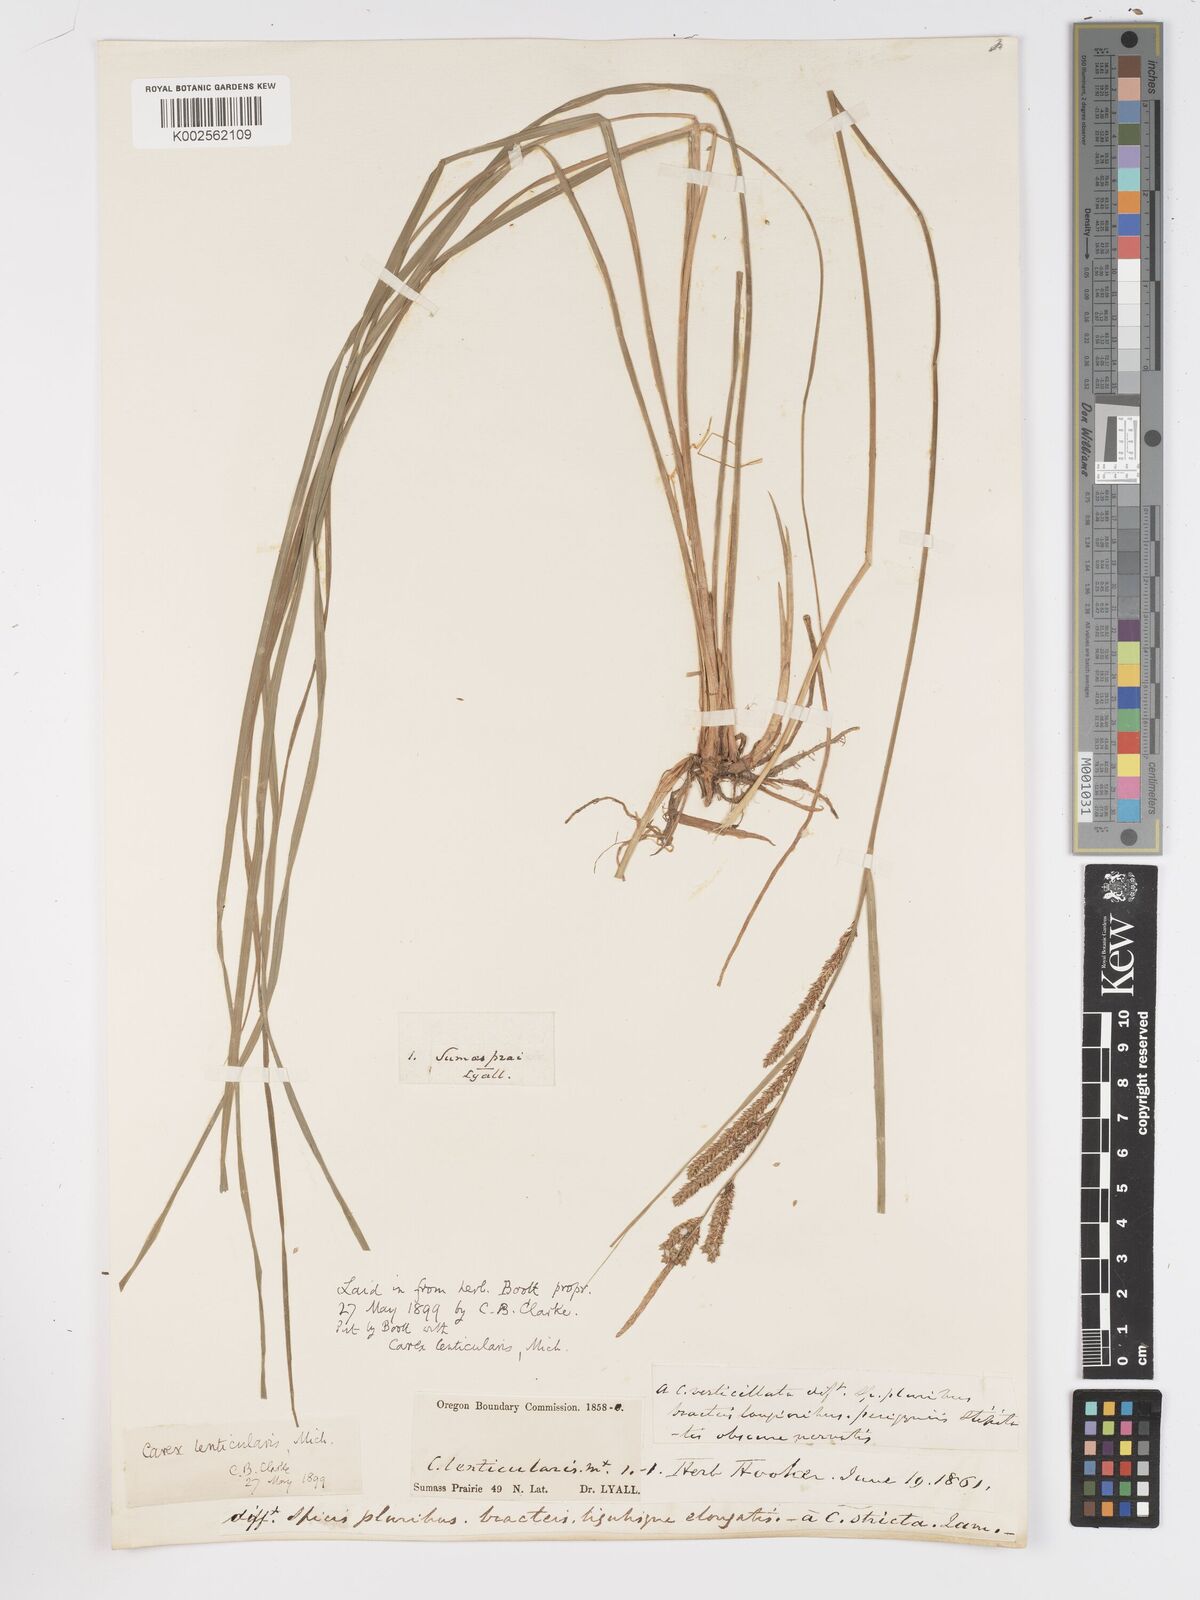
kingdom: Plantae
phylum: Tracheophyta
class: Liliopsida
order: Poales
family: Cyperaceae
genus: Carex
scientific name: Carex lenticularis
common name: Lakeshore sedge
